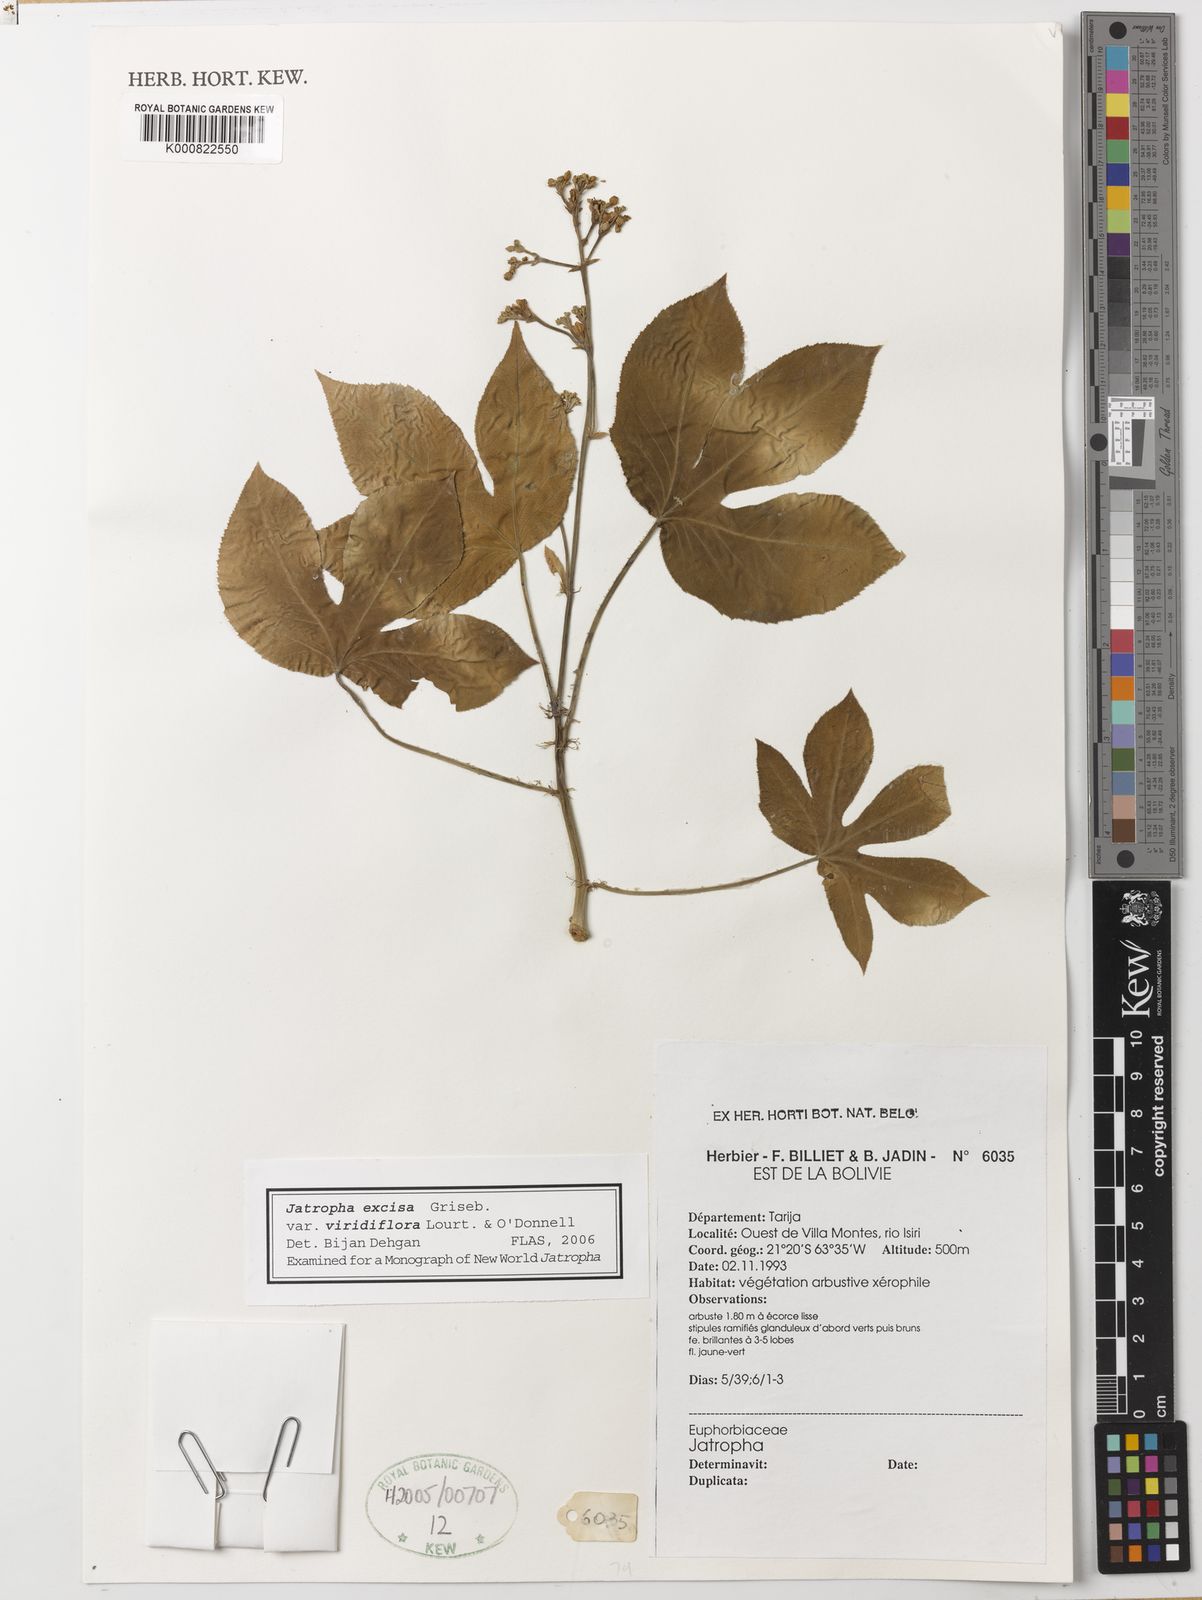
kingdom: Plantae
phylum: Tracheophyta
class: Magnoliopsida
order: Malpighiales
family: Euphorbiaceae
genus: Jatropha
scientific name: Jatropha excisa
